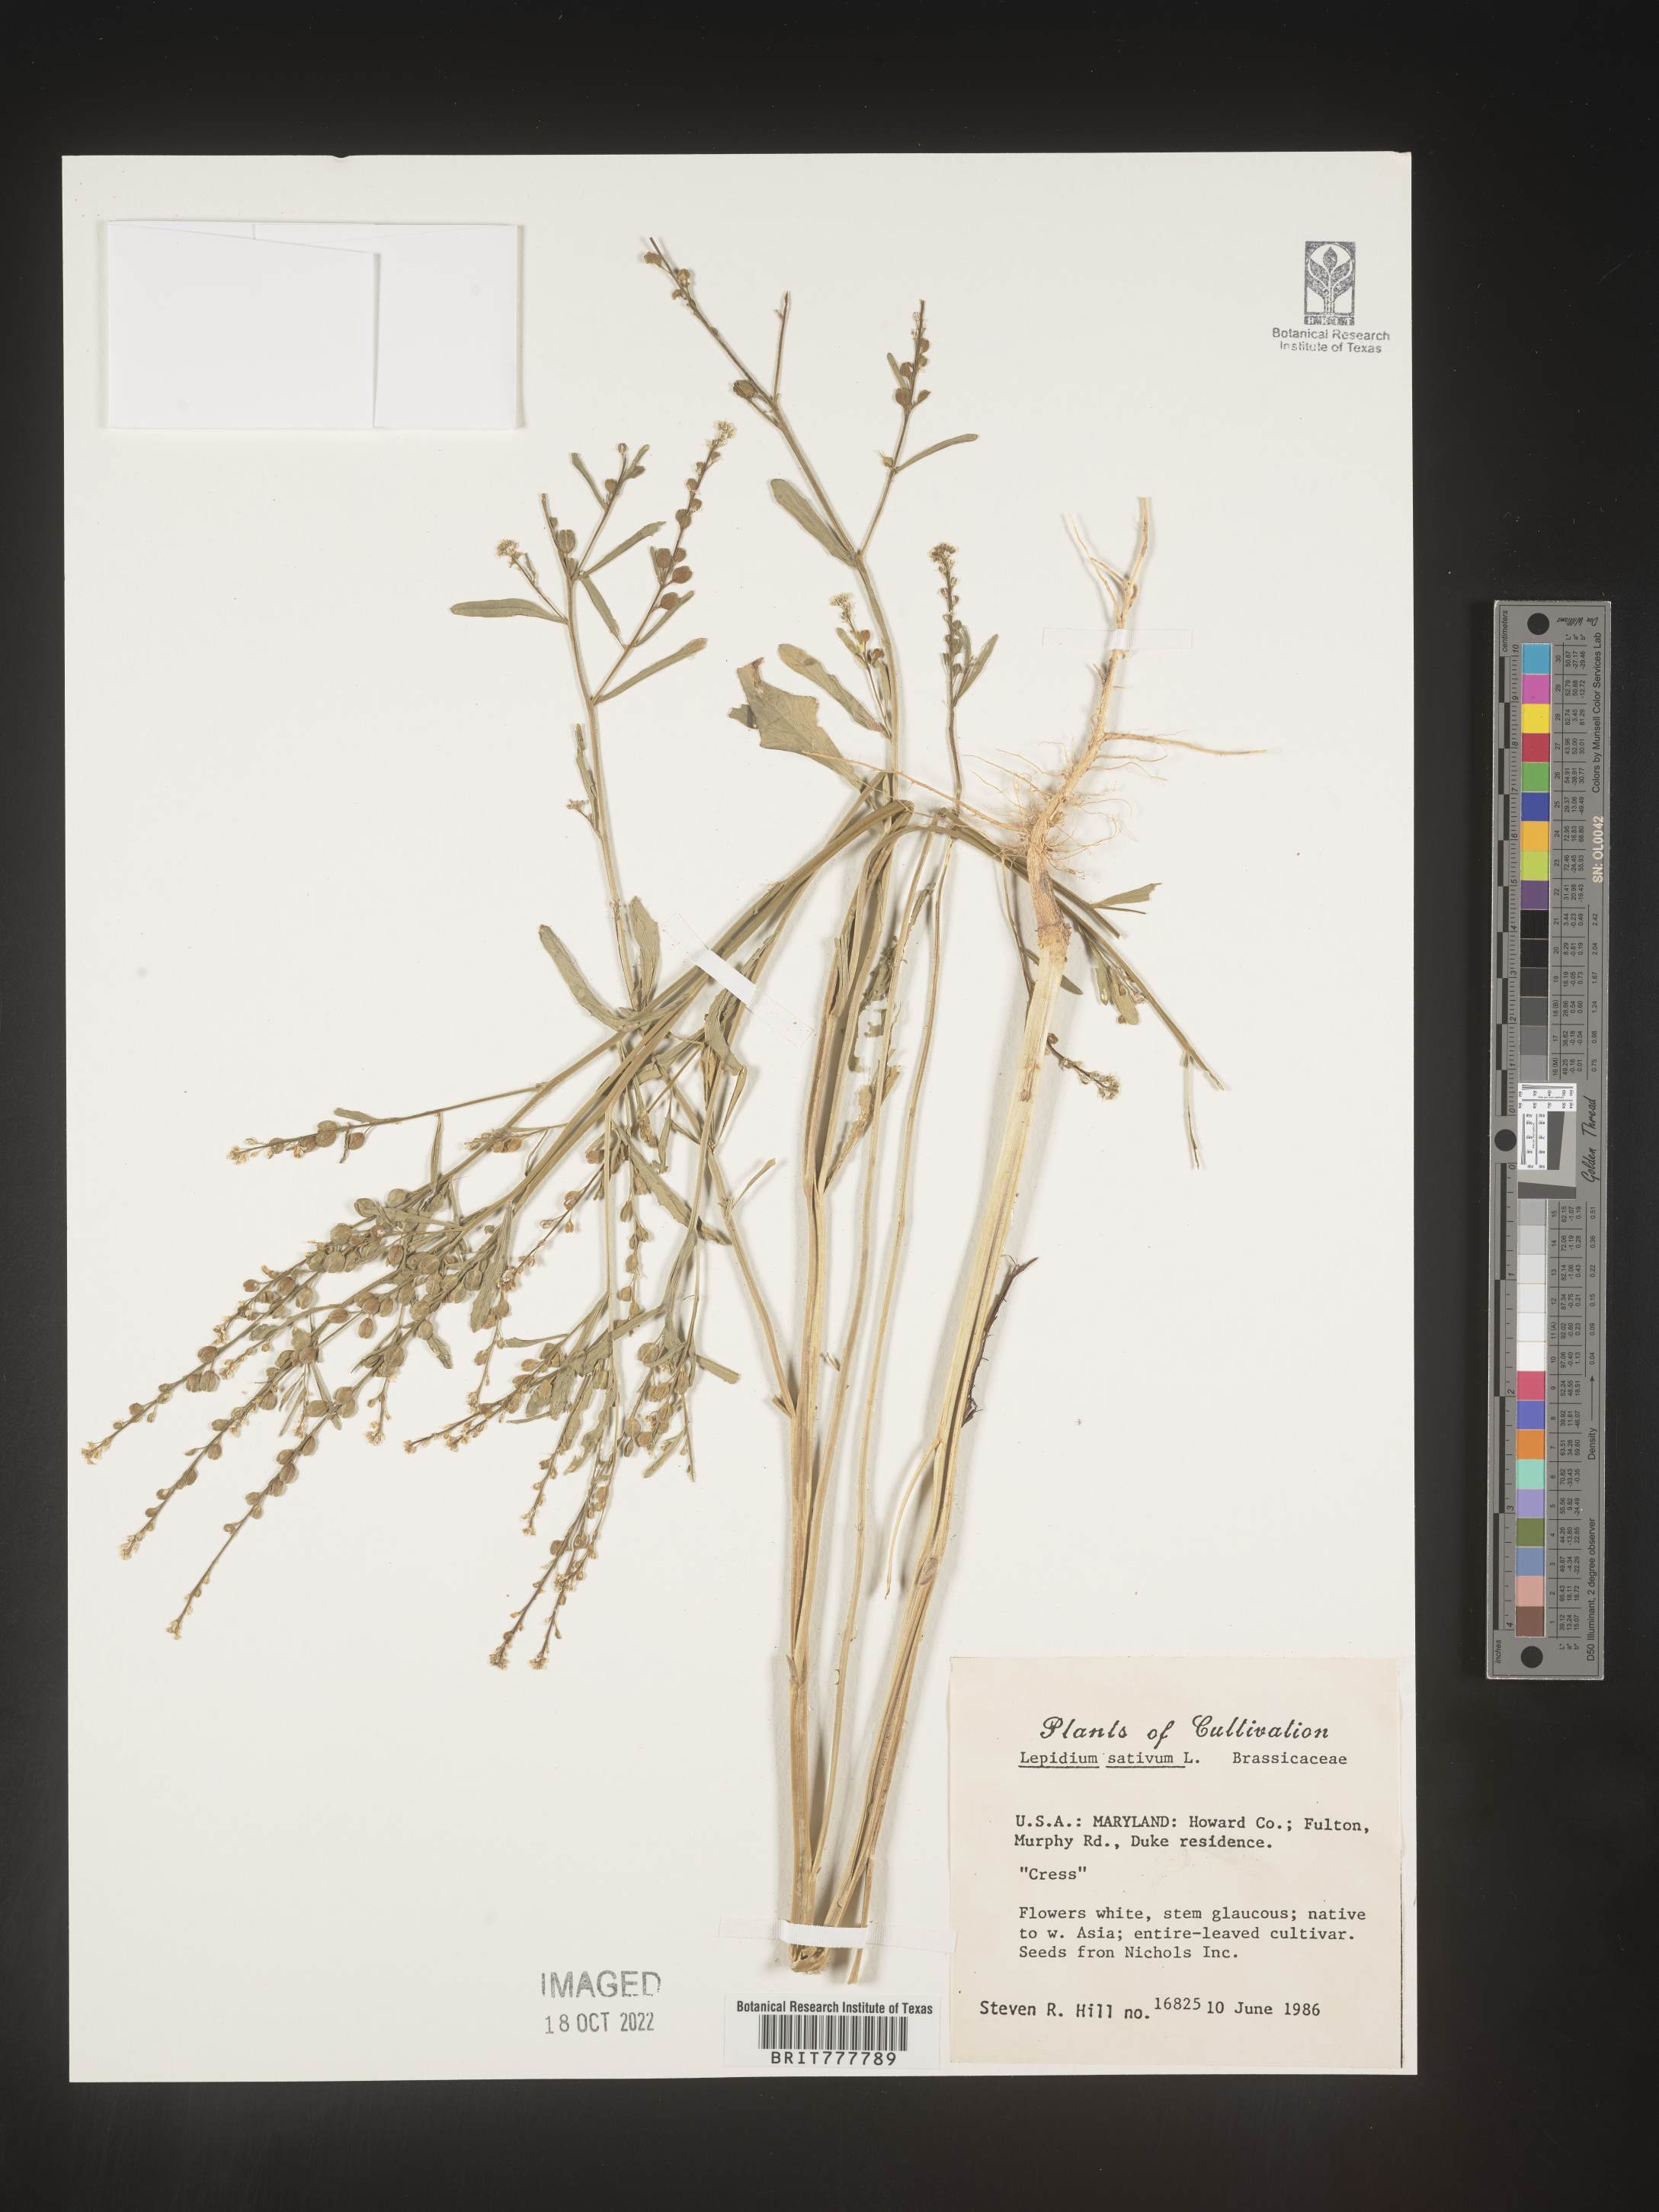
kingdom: Plantae
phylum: Tracheophyta
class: Magnoliopsida
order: Brassicales
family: Brassicaceae
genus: Lepidium
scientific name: Lepidium
